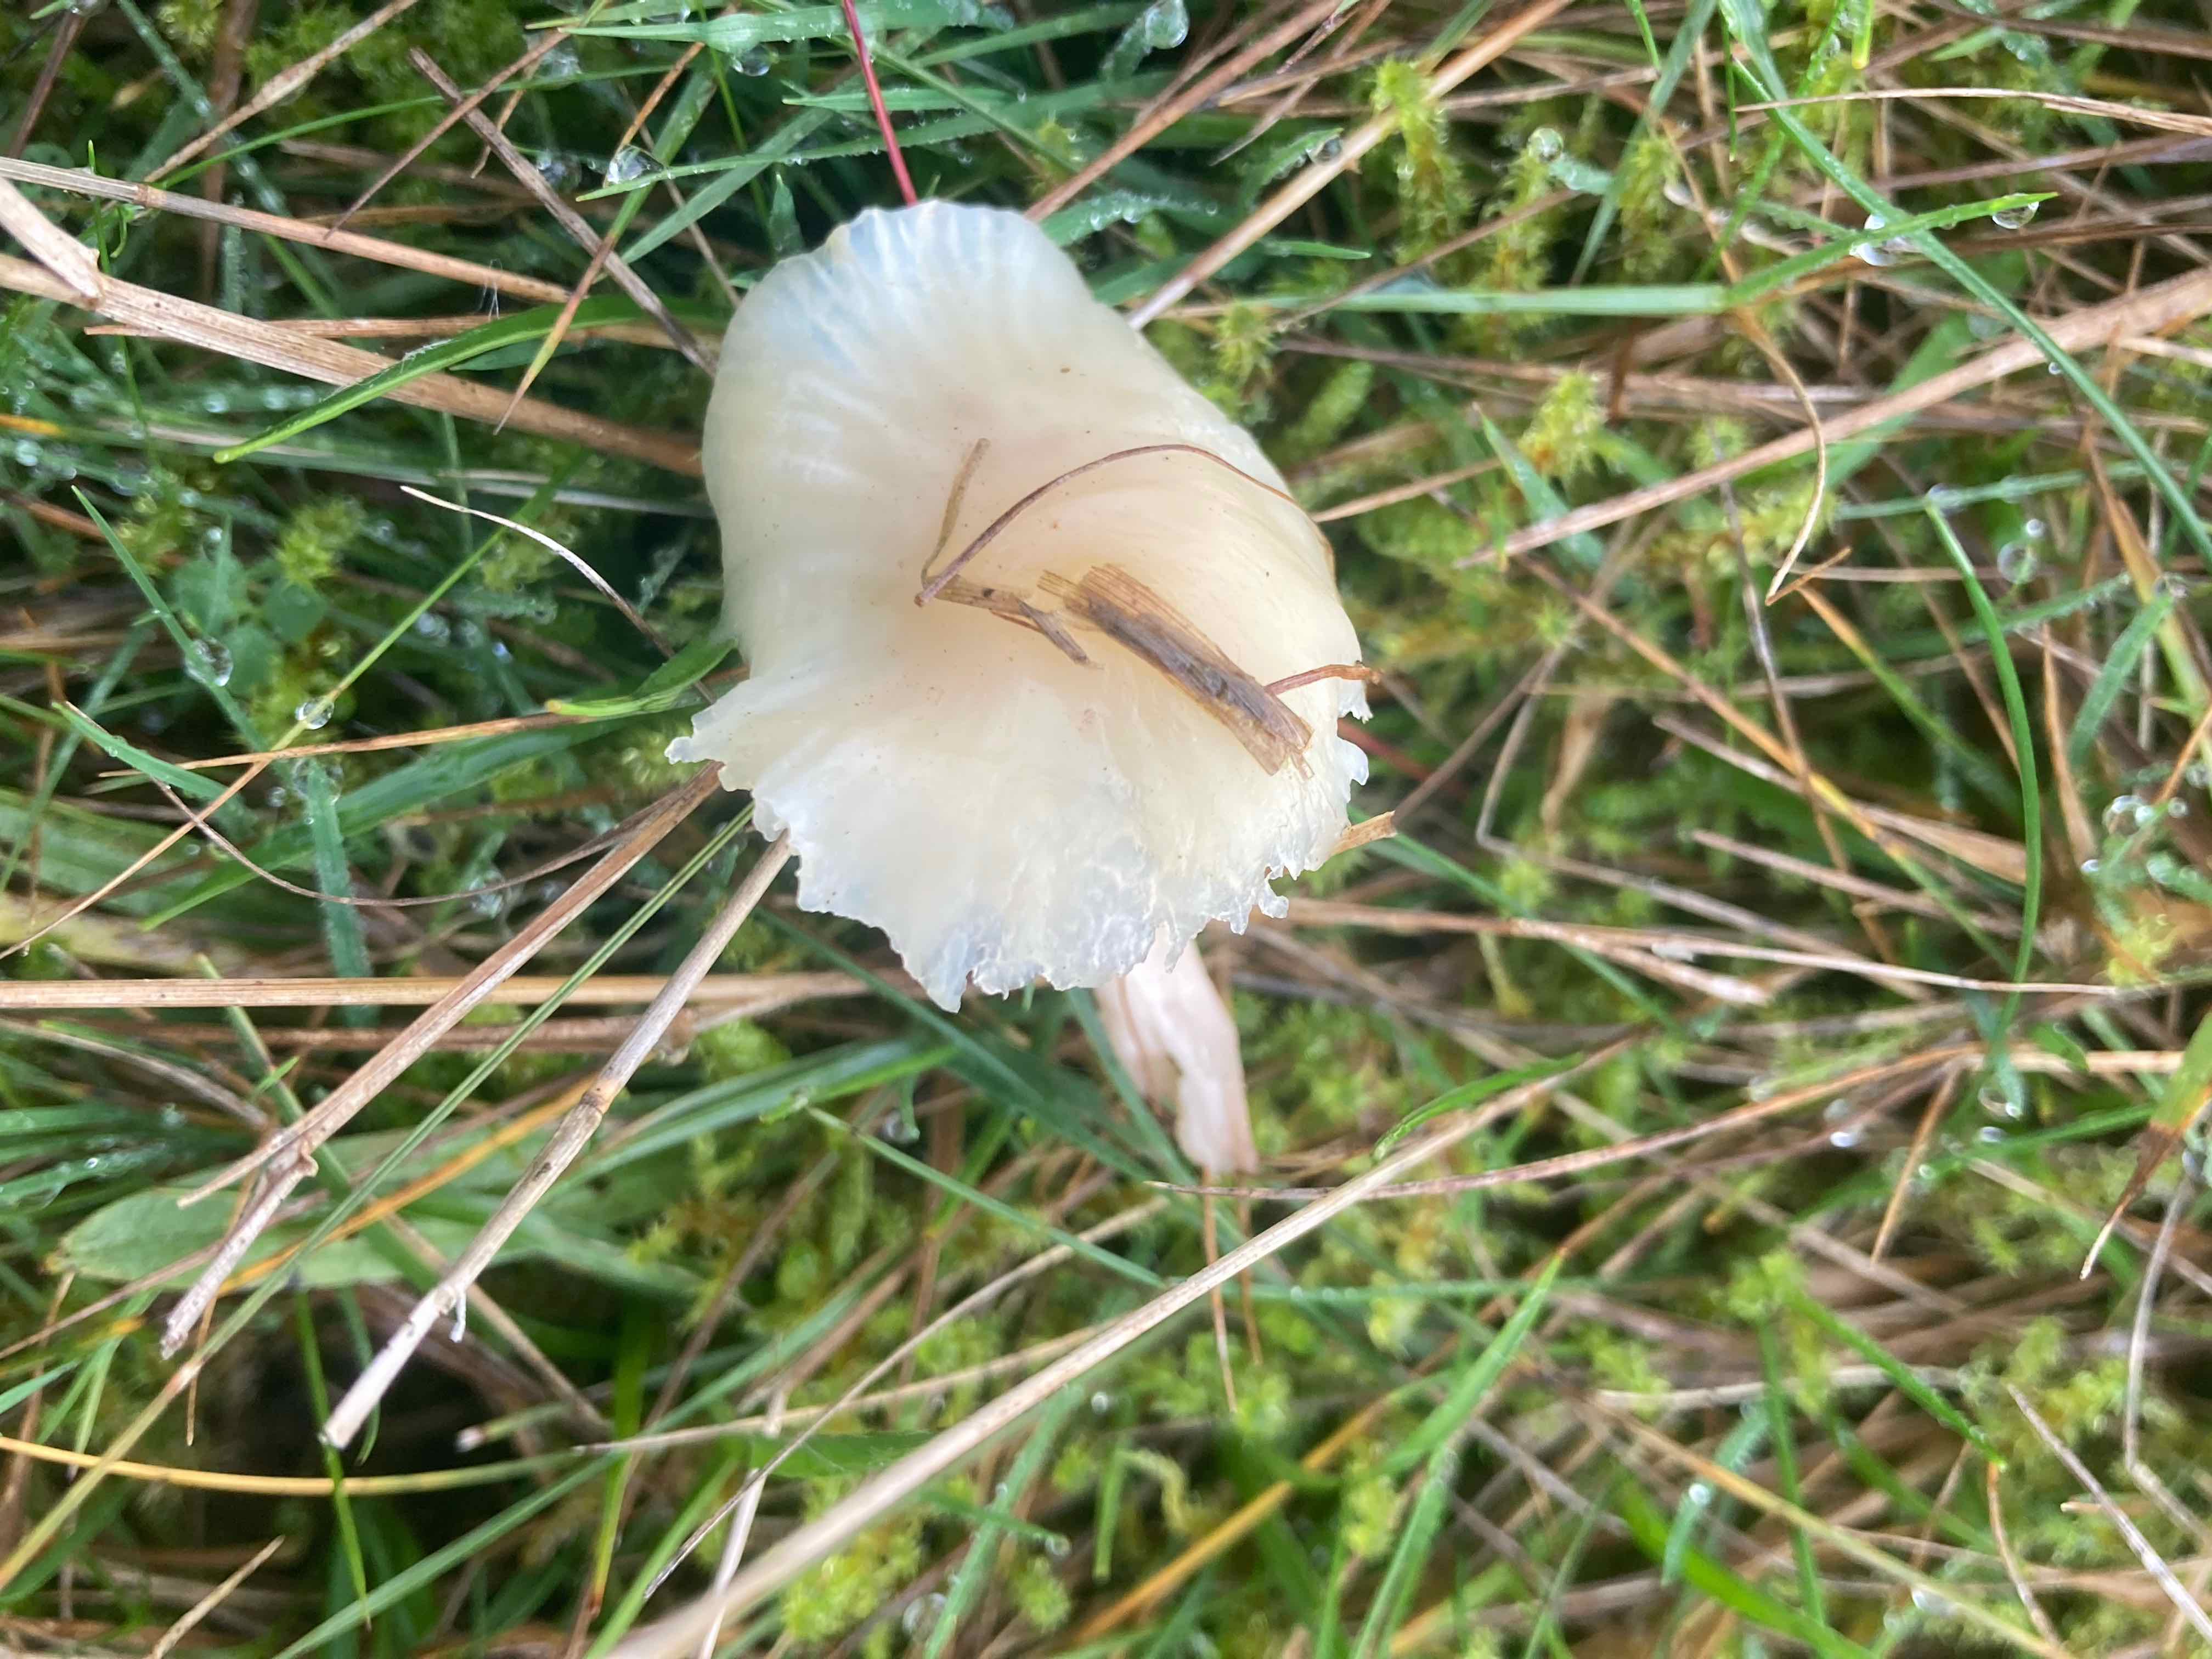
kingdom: Fungi
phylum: Basidiomycota
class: Agaricomycetes
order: Agaricales
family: Hygrophoraceae
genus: Cuphophyllus
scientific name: Cuphophyllus virgineus
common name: snehvid vokshat
